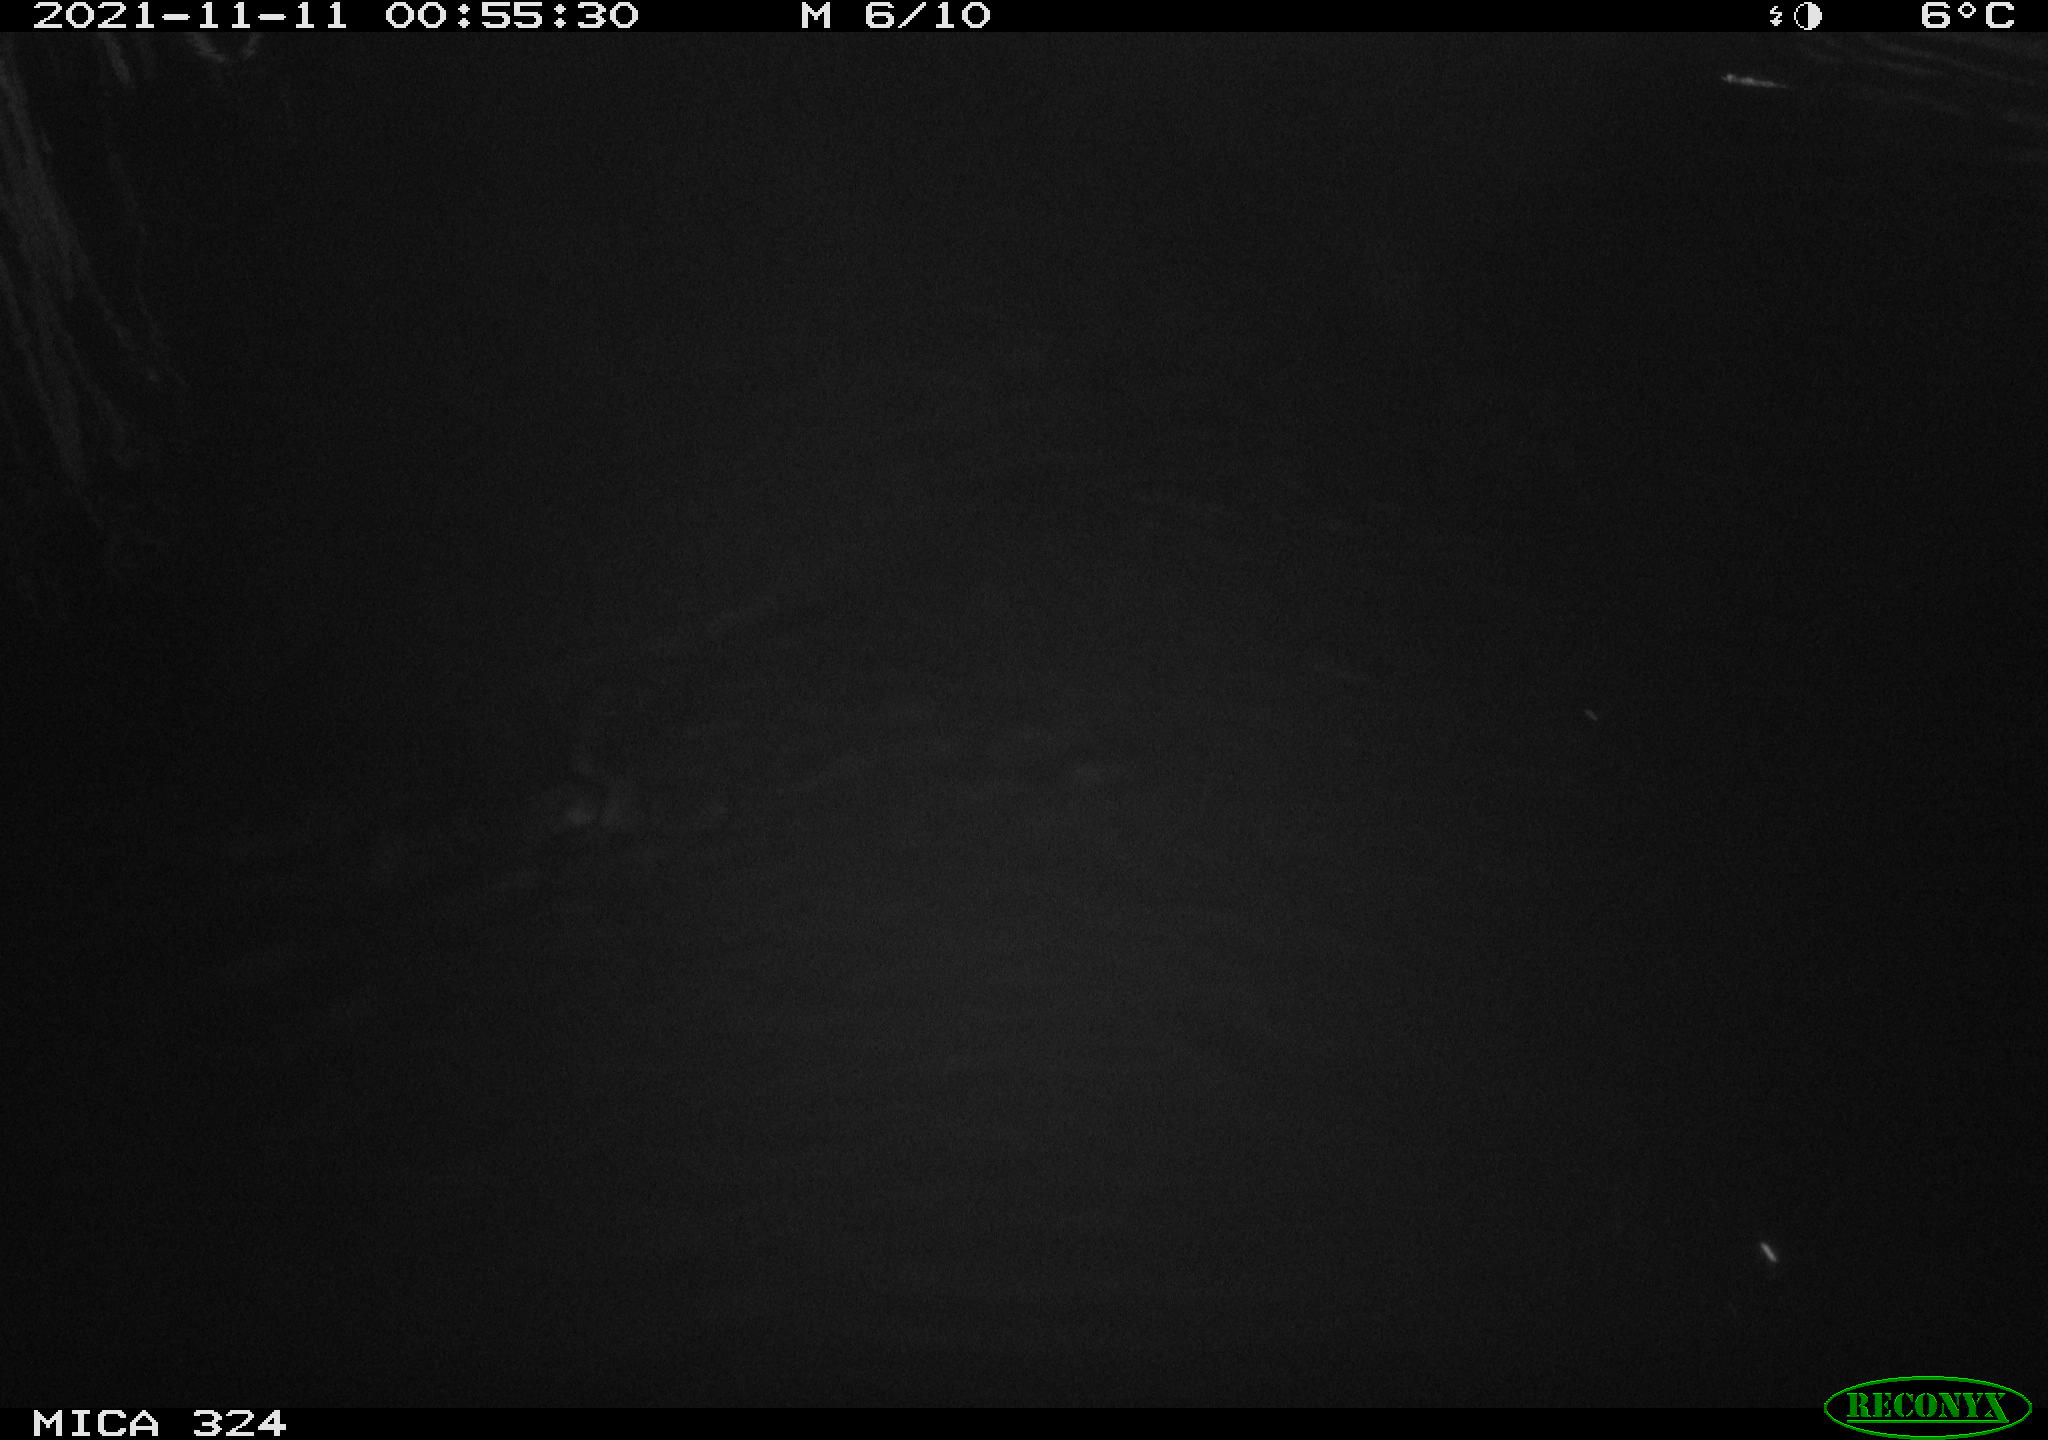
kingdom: Animalia
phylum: Chordata
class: Mammalia
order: Rodentia
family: Cricetidae
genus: Ondatra
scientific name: Ondatra zibethicus
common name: Muskrat
